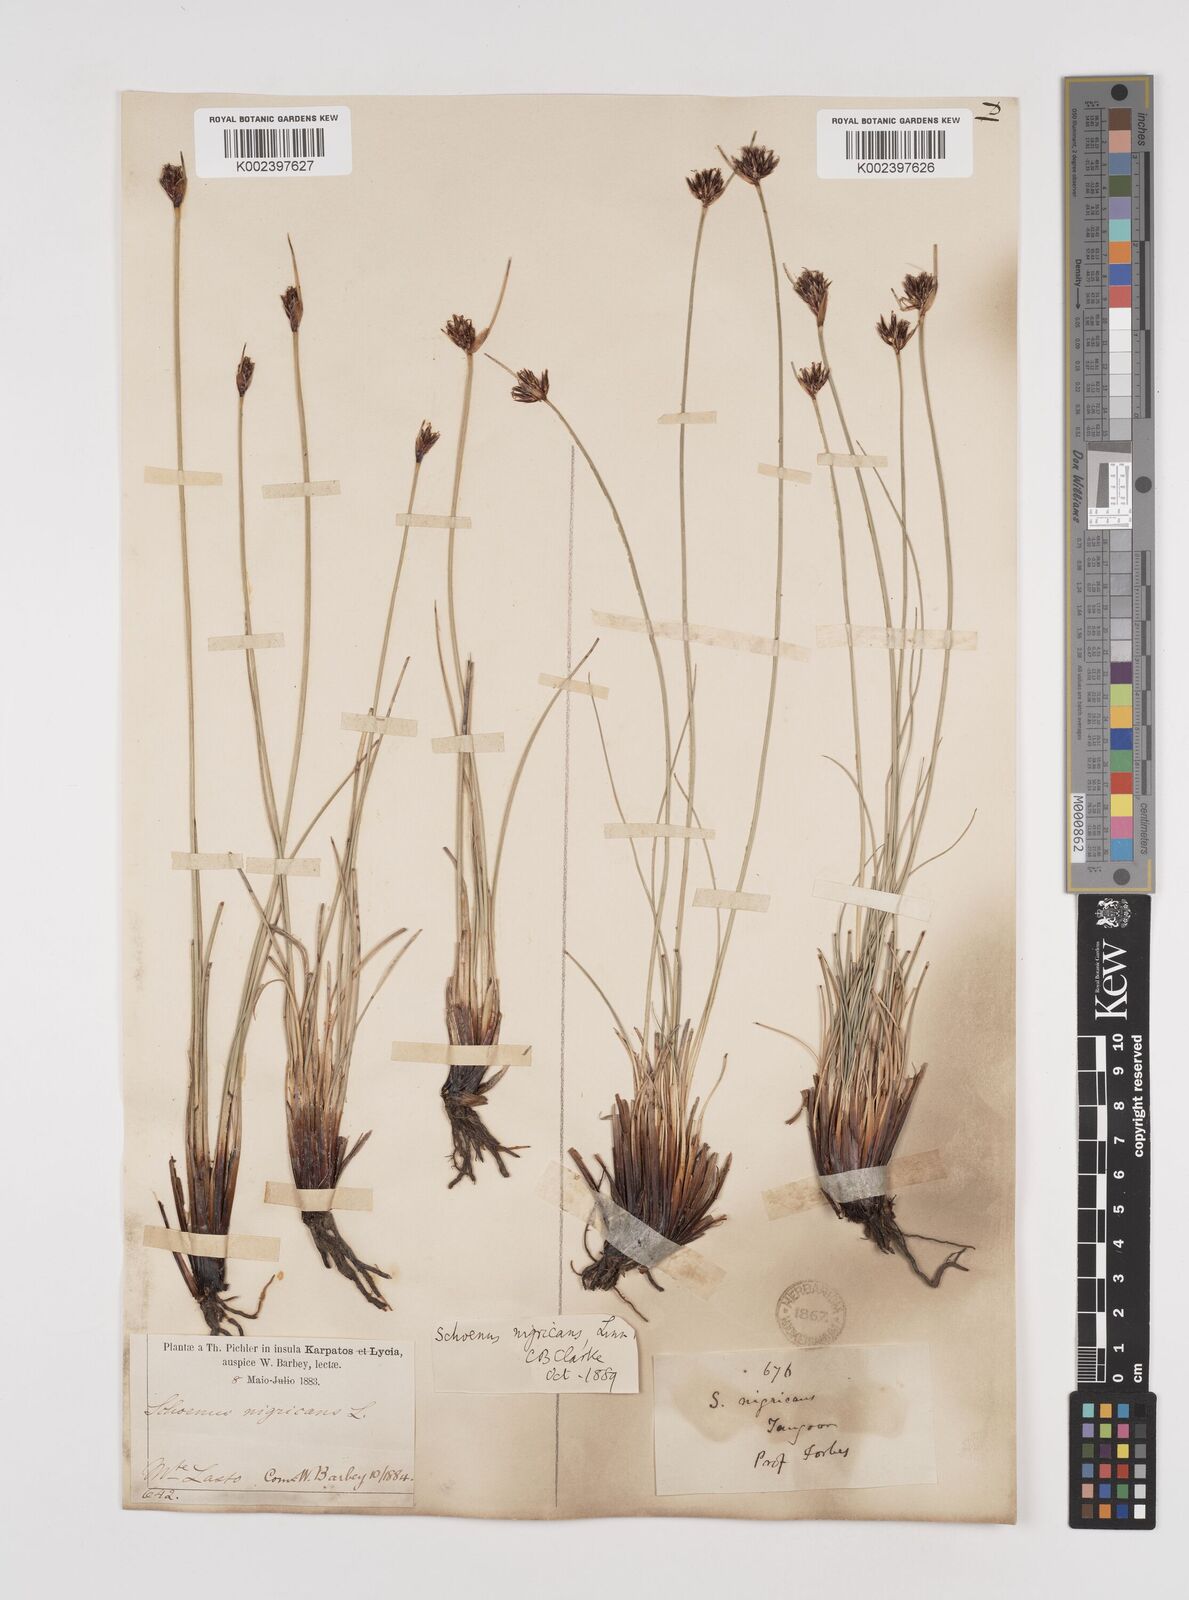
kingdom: Plantae
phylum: Tracheophyta
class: Liliopsida
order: Poales
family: Cyperaceae
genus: Schoenus
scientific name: Schoenus nigricans
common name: Black bog-rush
